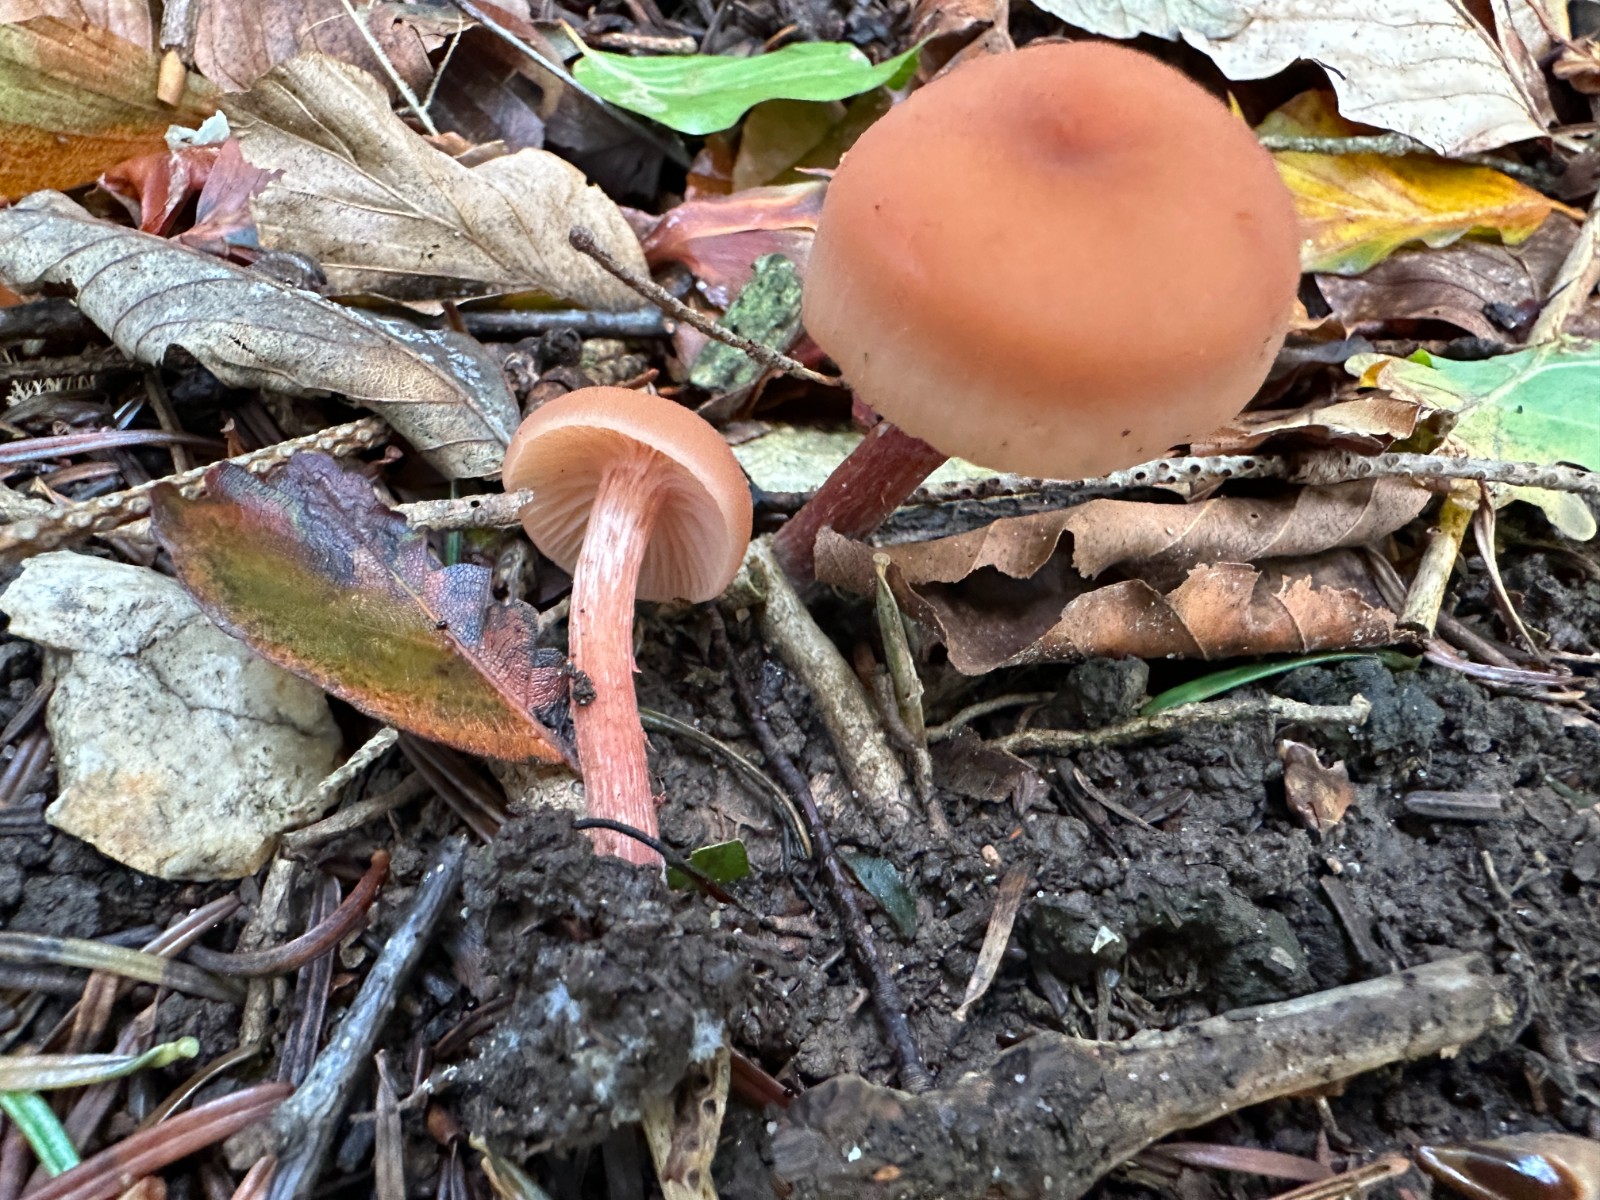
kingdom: Fungi
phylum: Basidiomycota
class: Agaricomycetes
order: Agaricales
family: Hydnangiaceae
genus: Laccaria
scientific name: Laccaria laccata
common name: rød ametysthat
